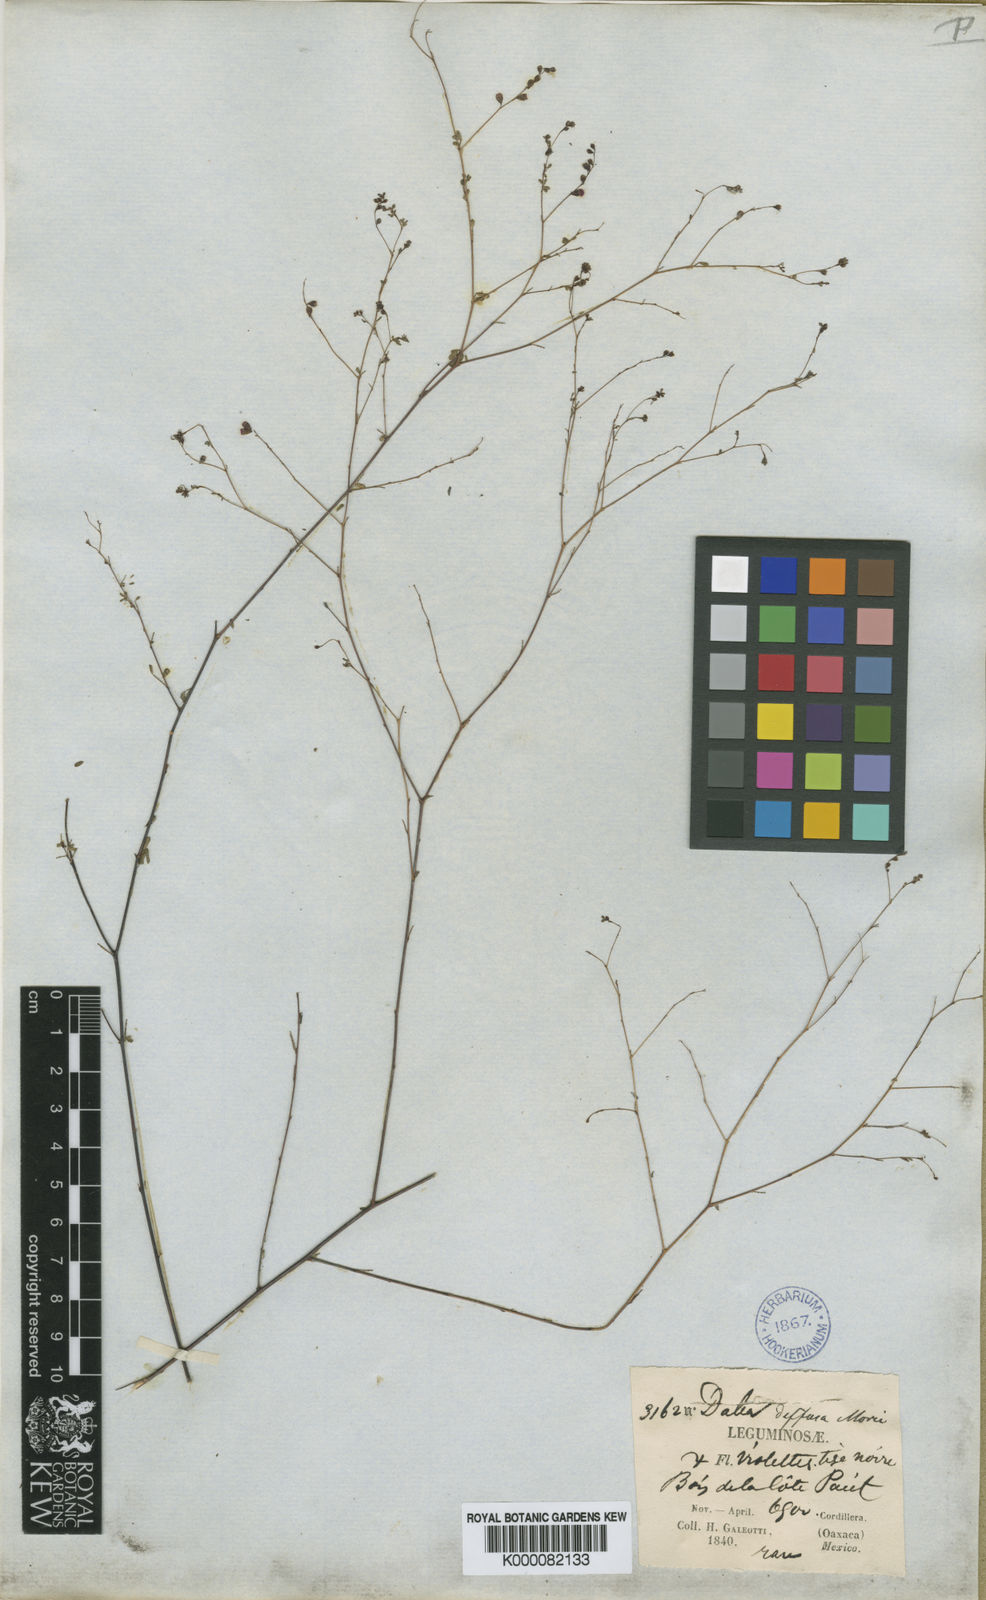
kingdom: Plantae
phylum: Tracheophyta
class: Magnoliopsida
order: Fabales
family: Fabaceae
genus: Marina
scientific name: Marina diffusa
